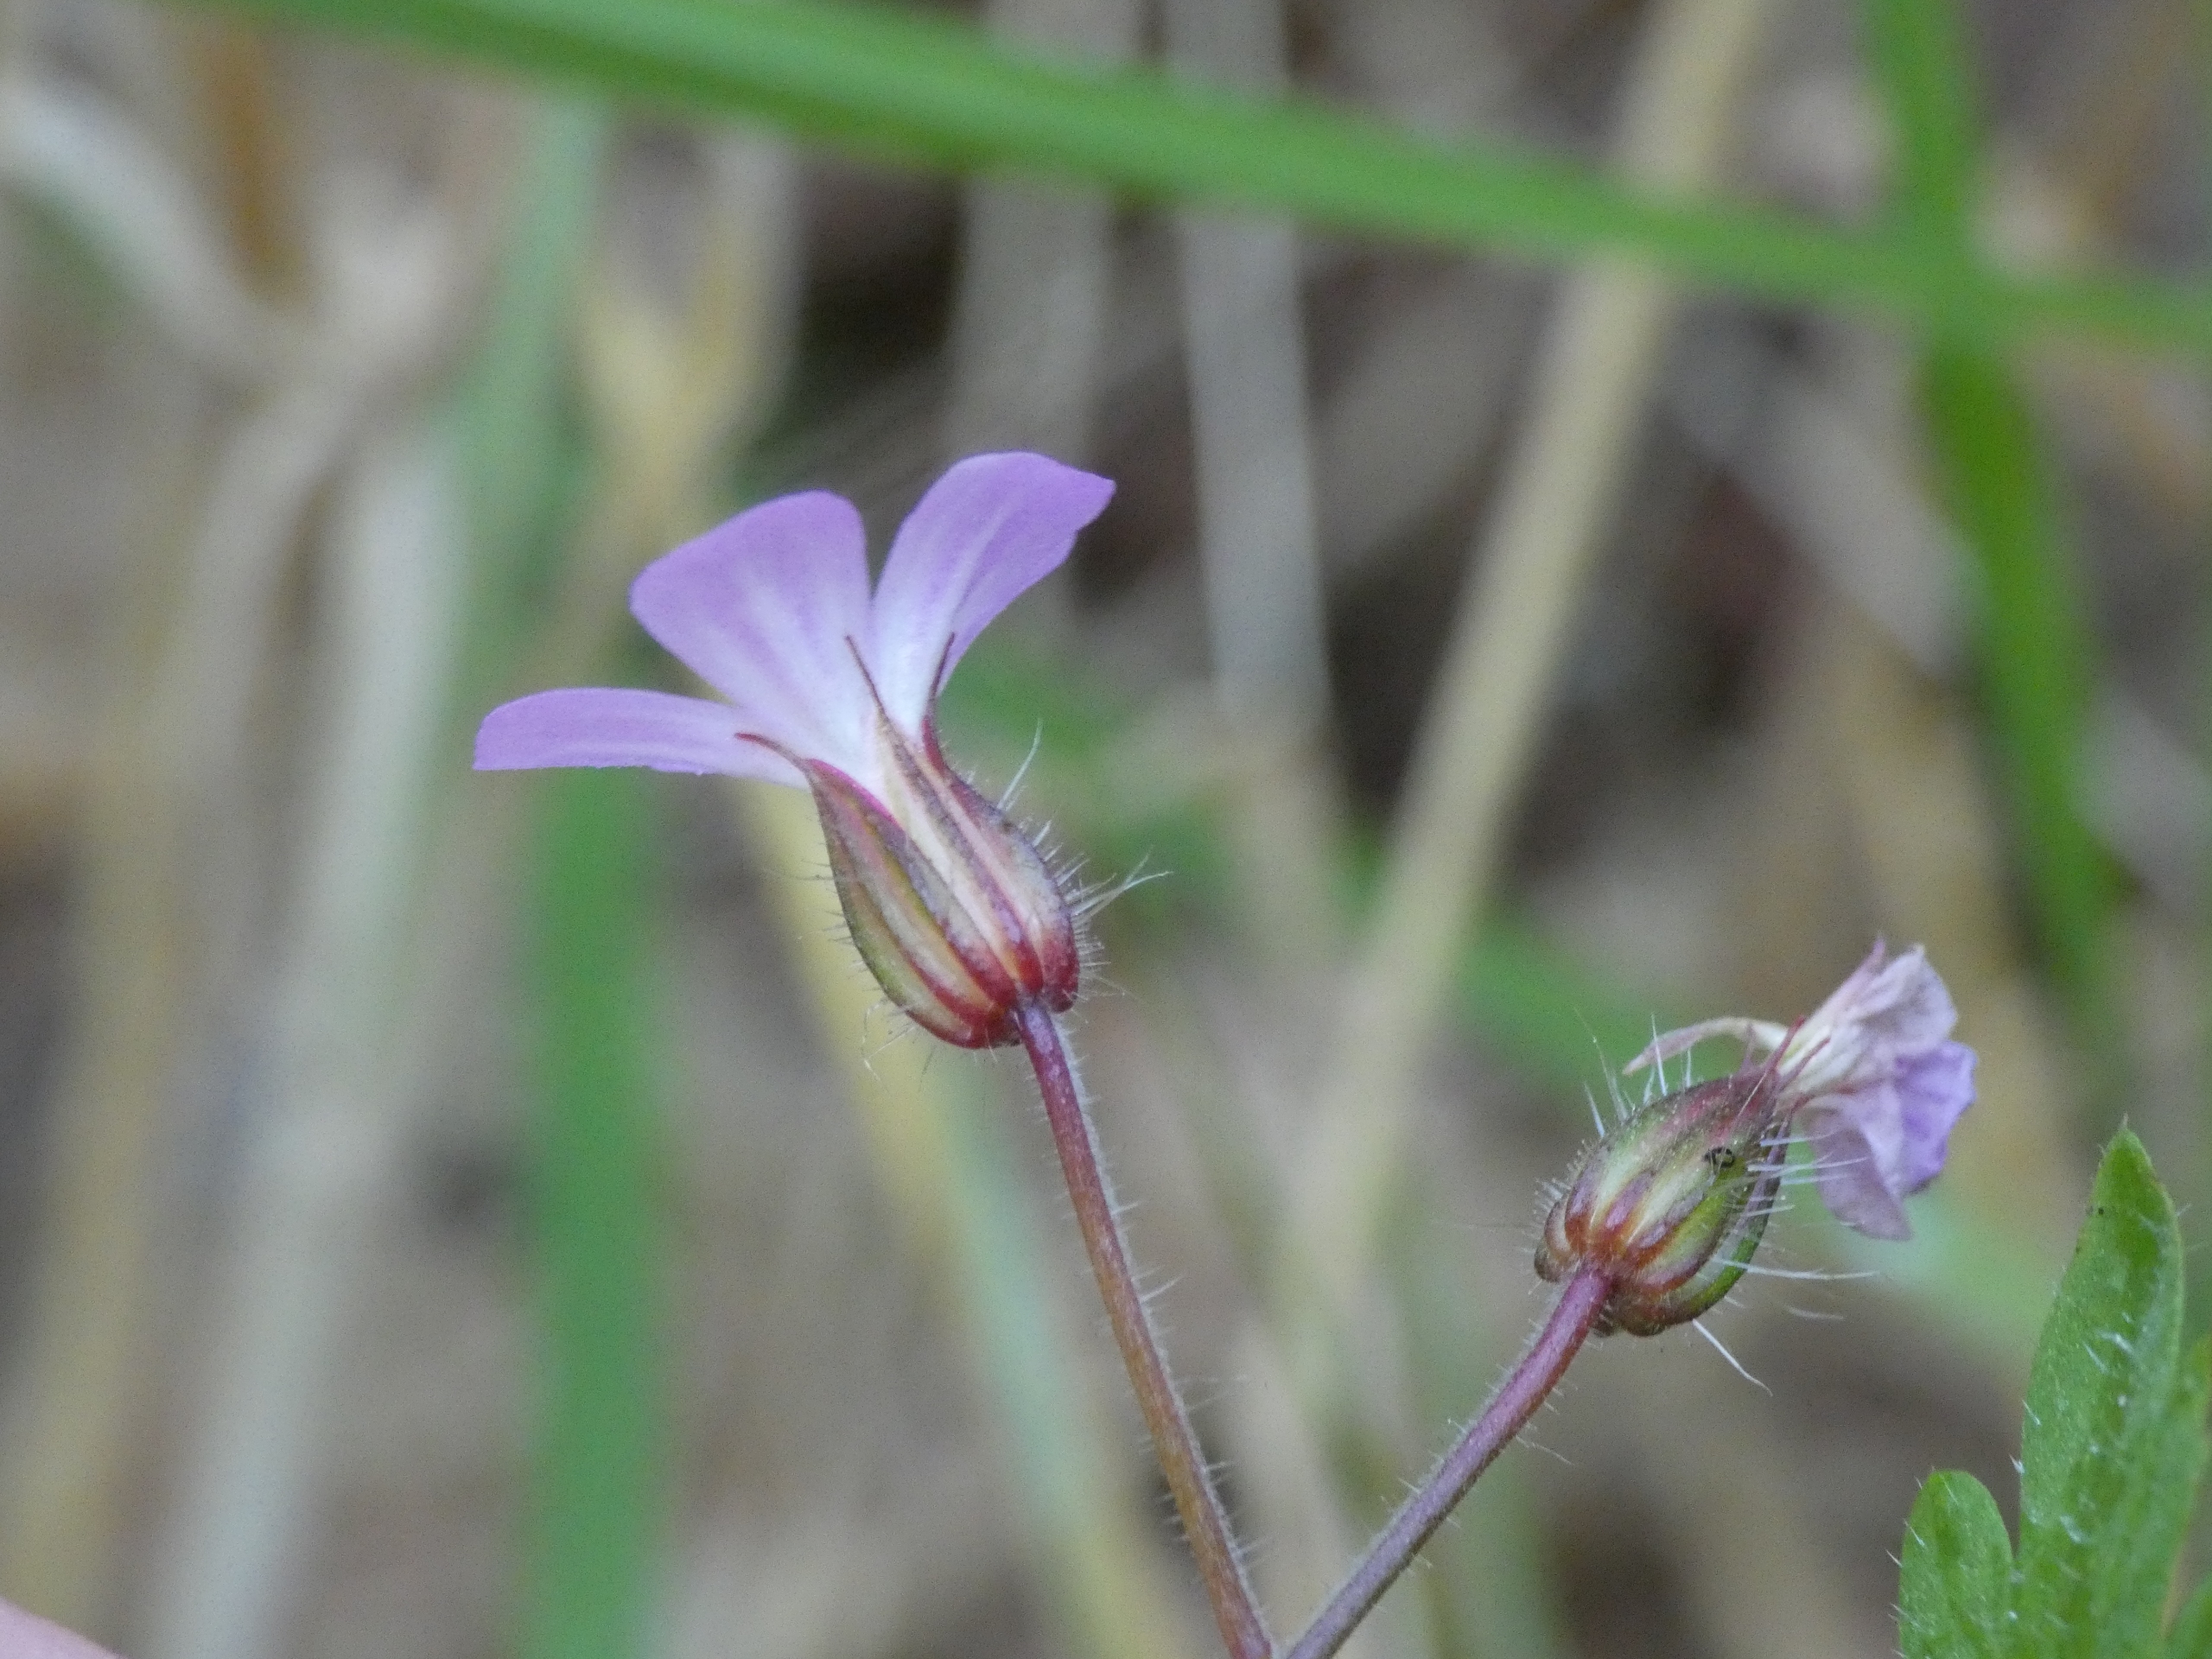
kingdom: Plantae
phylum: Tracheophyta
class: Magnoliopsida
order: Geraniales
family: Geraniaceae
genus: Geranium
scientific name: Geranium robertianum
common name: Stinkende storkenæb
